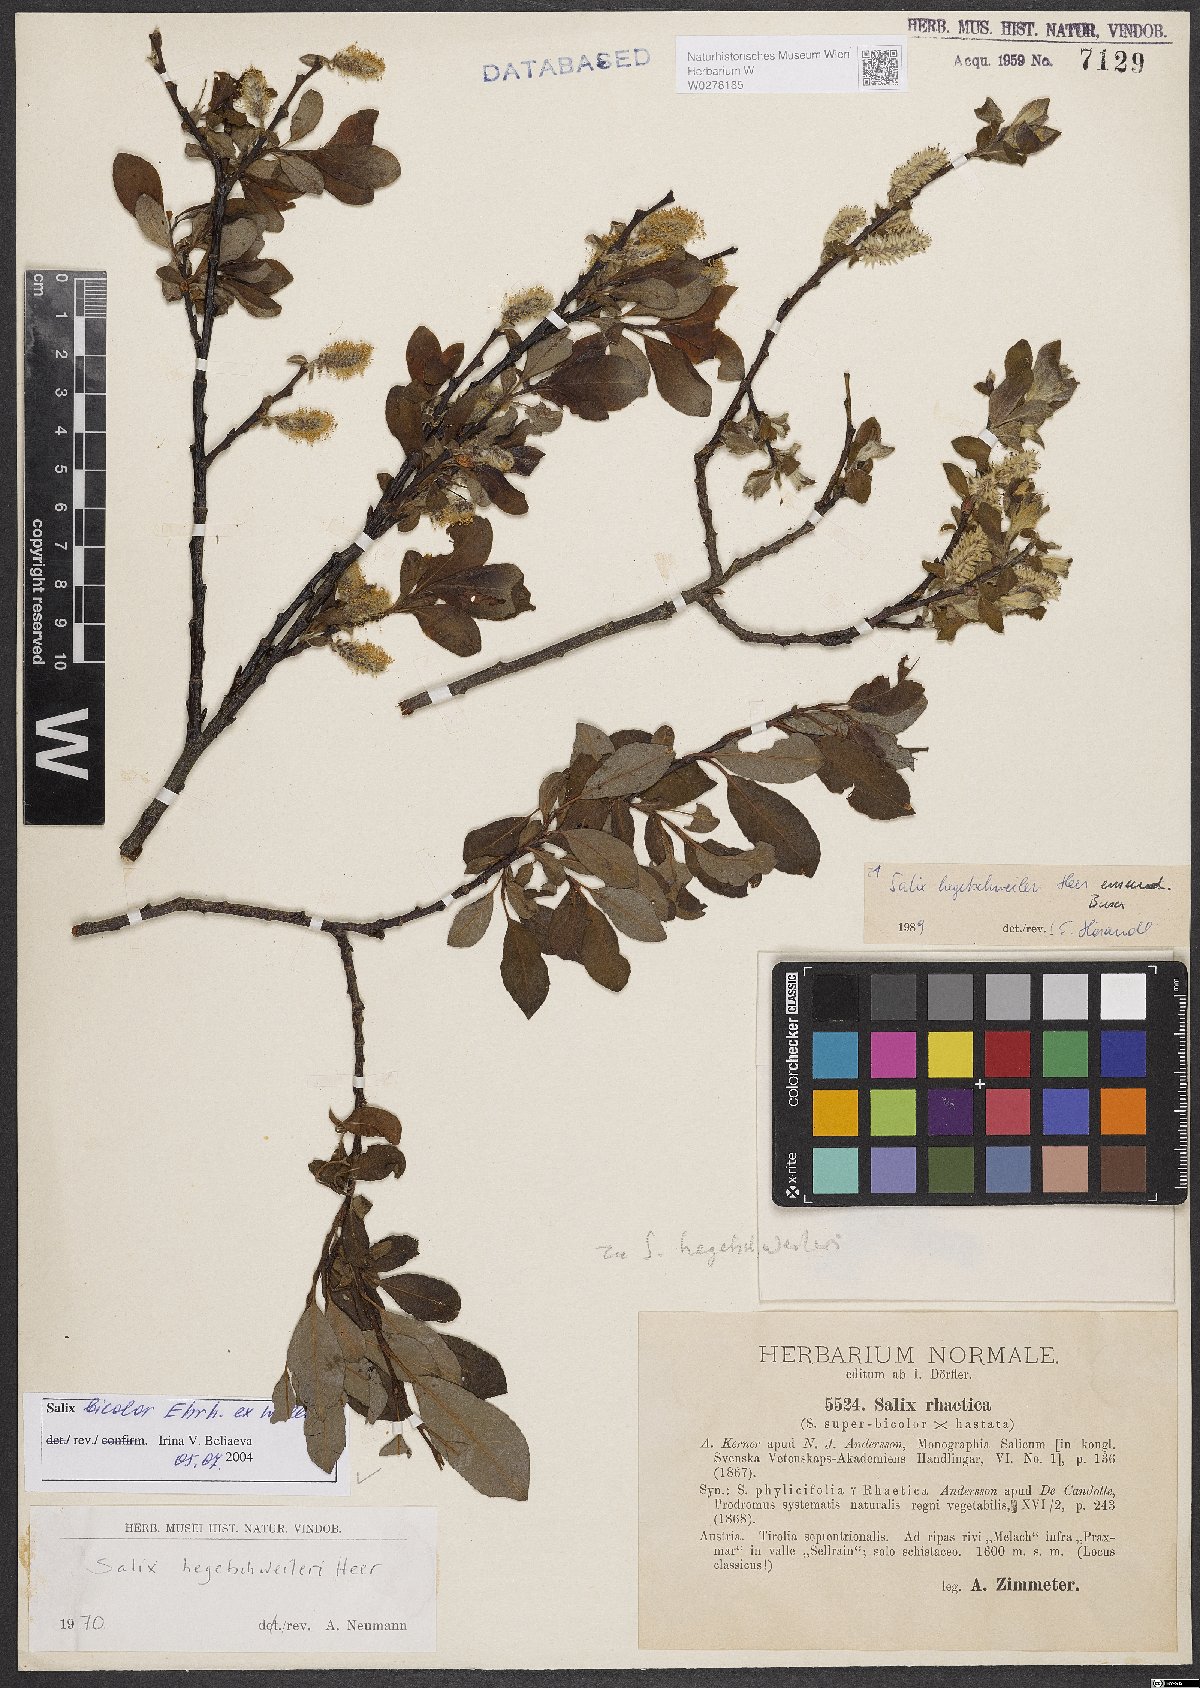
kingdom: Plantae
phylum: Tracheophyta
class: Magnoliopsida
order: Malpighiales
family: Salicaceae
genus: Salix
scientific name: Salix bicolor
